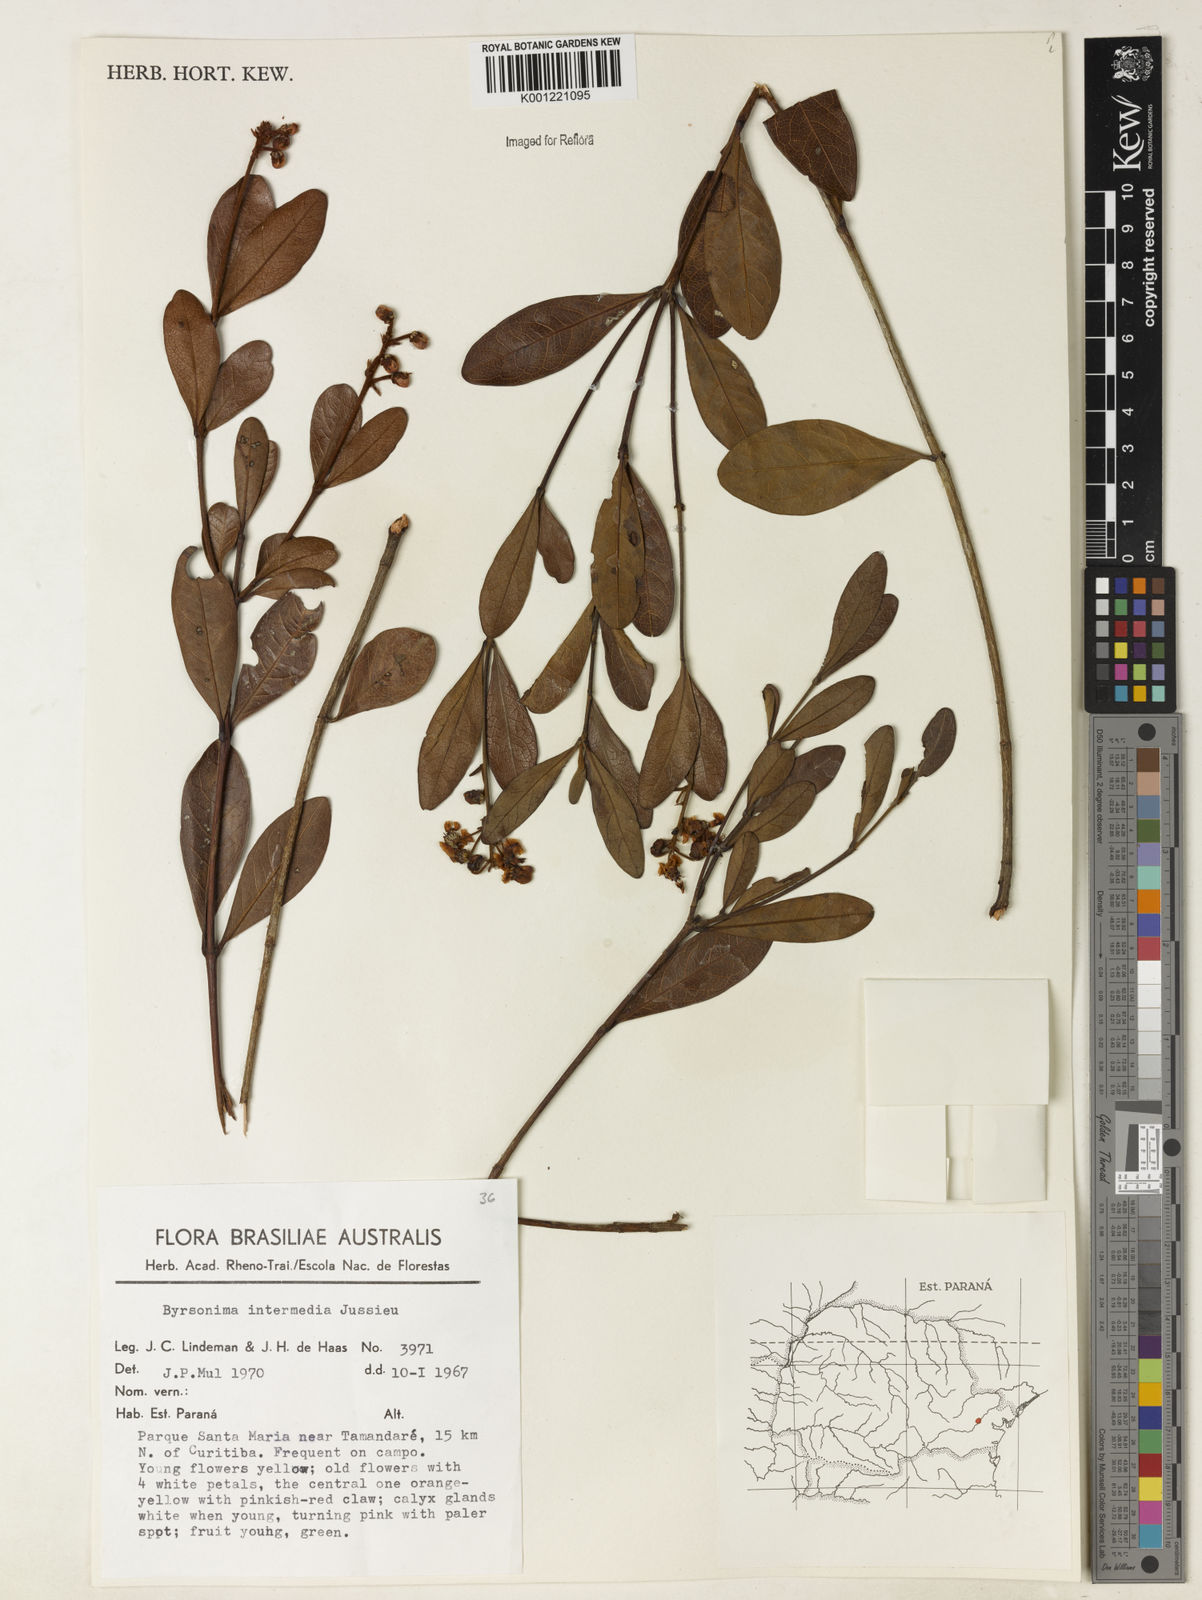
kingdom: Plantae
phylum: Tracheophyta
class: Magnoliopsida
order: Malpighiales
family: Malpighiaceae
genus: Byrsonima
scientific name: Byrsonima intermedia
